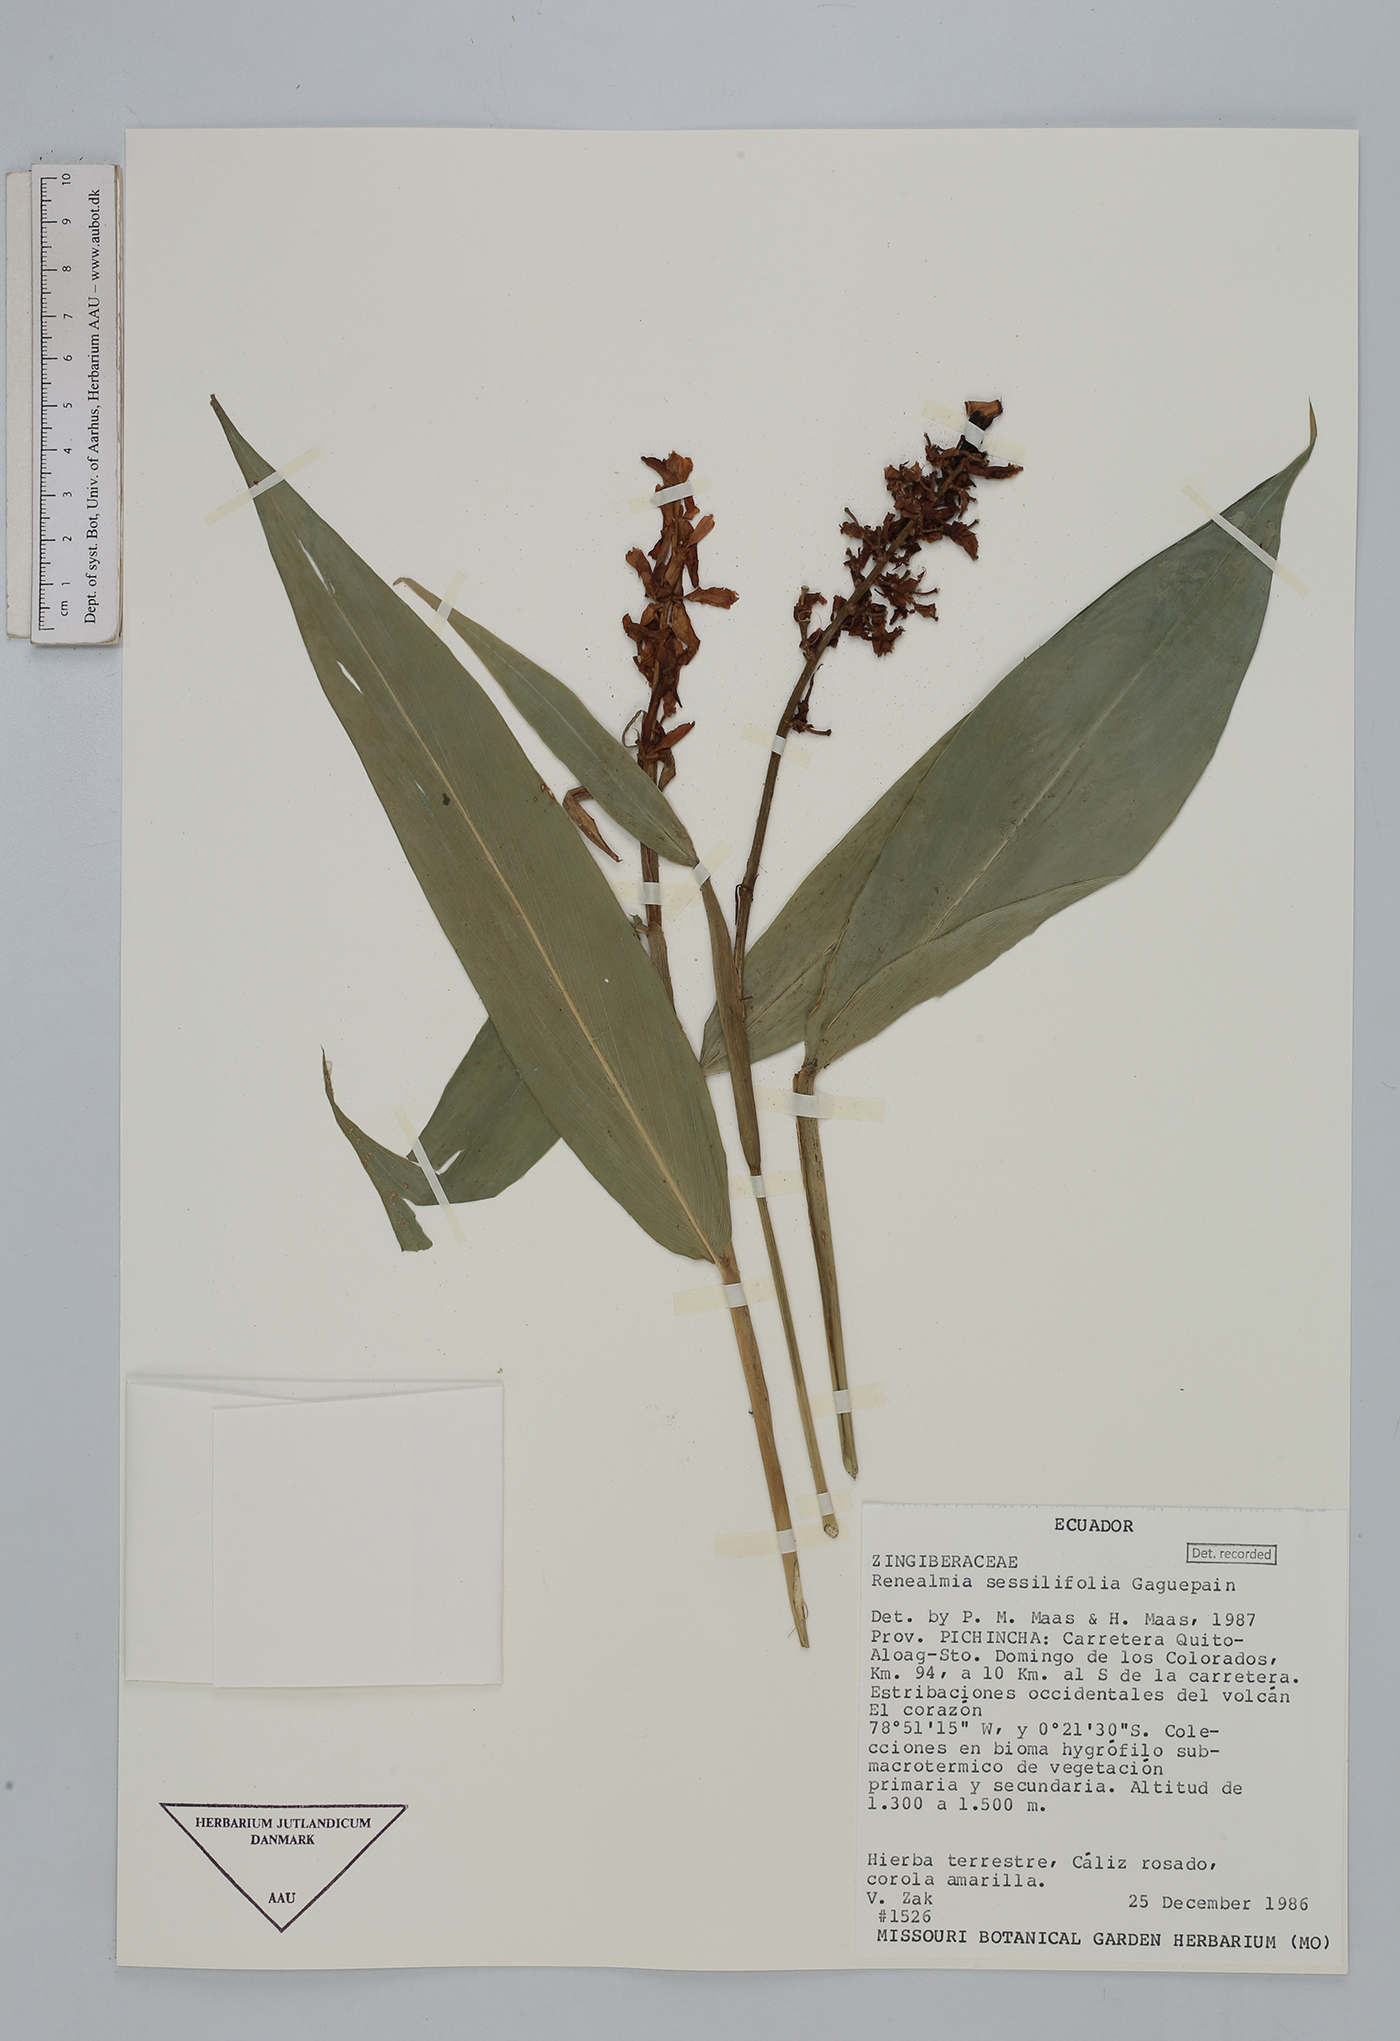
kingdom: Plantae
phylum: Tracheophyta
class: Liliopsida
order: Zingiberales
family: Zingiberaceae
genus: Renealmia
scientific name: Renealmia sessilifolia
